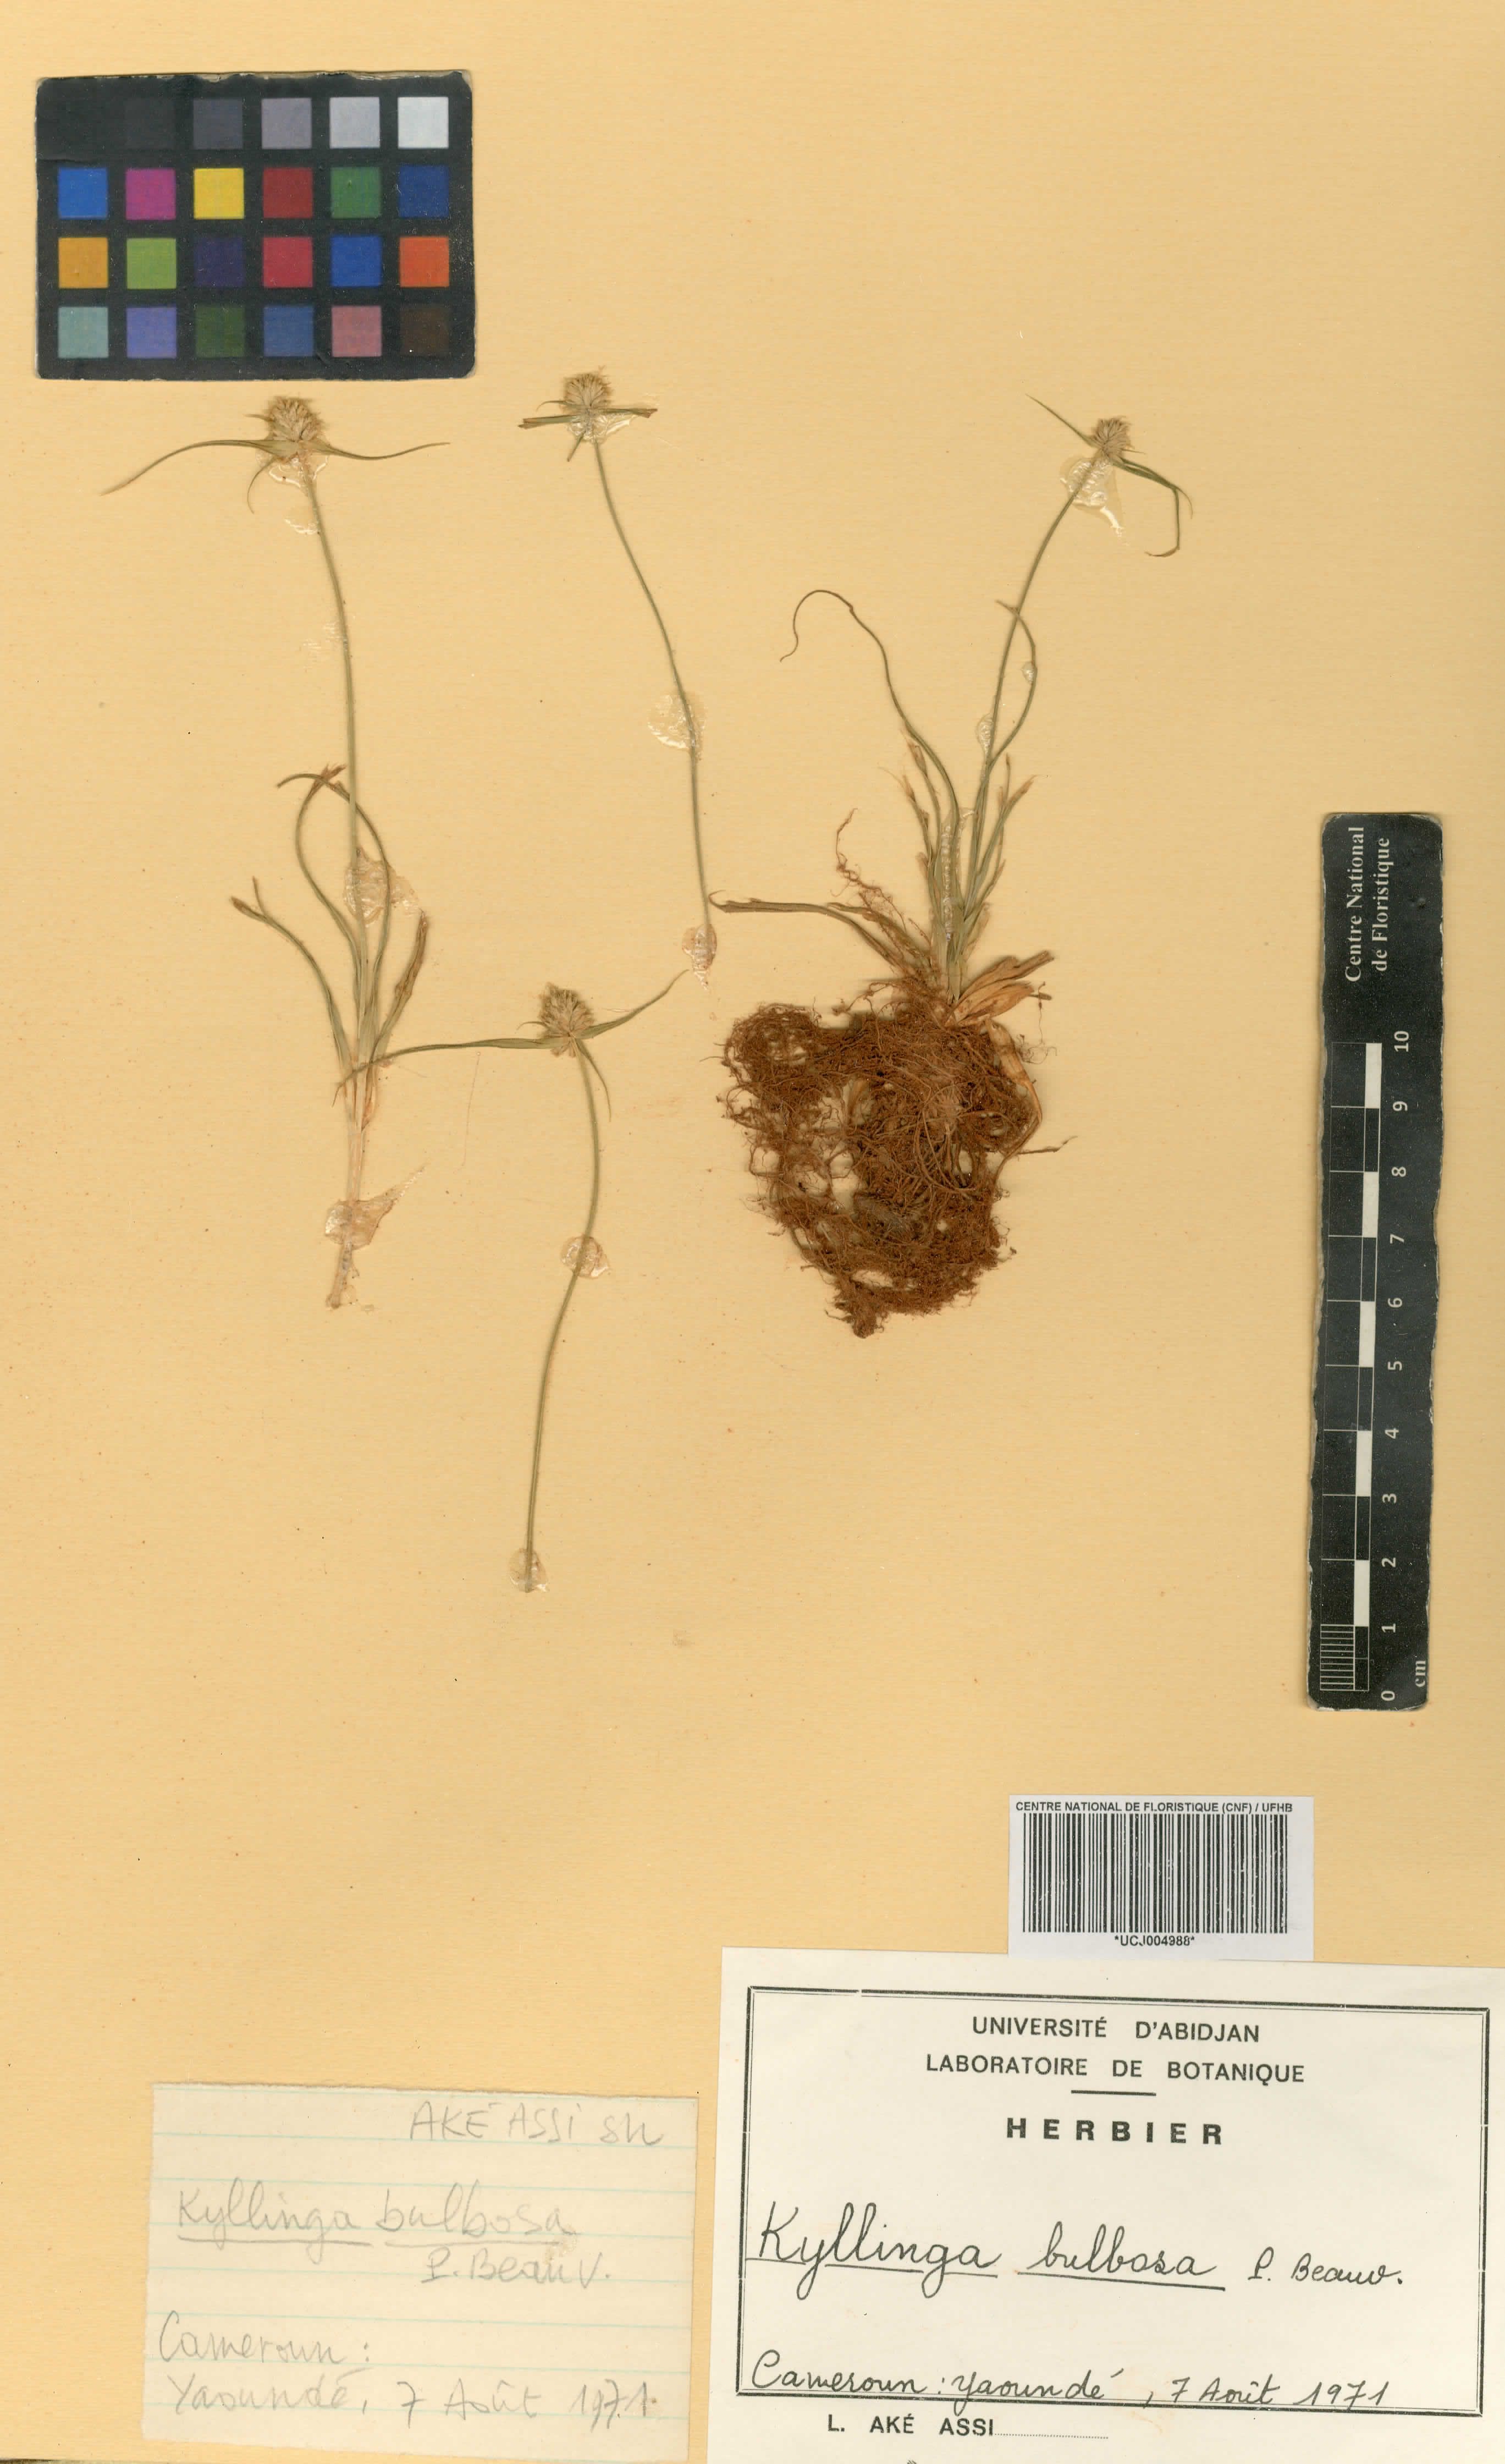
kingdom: Plantae
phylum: Tracheophyta
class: Liliopsida
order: Poales
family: Cyperaceae
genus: Cyperus
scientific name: Cyperus richardii
